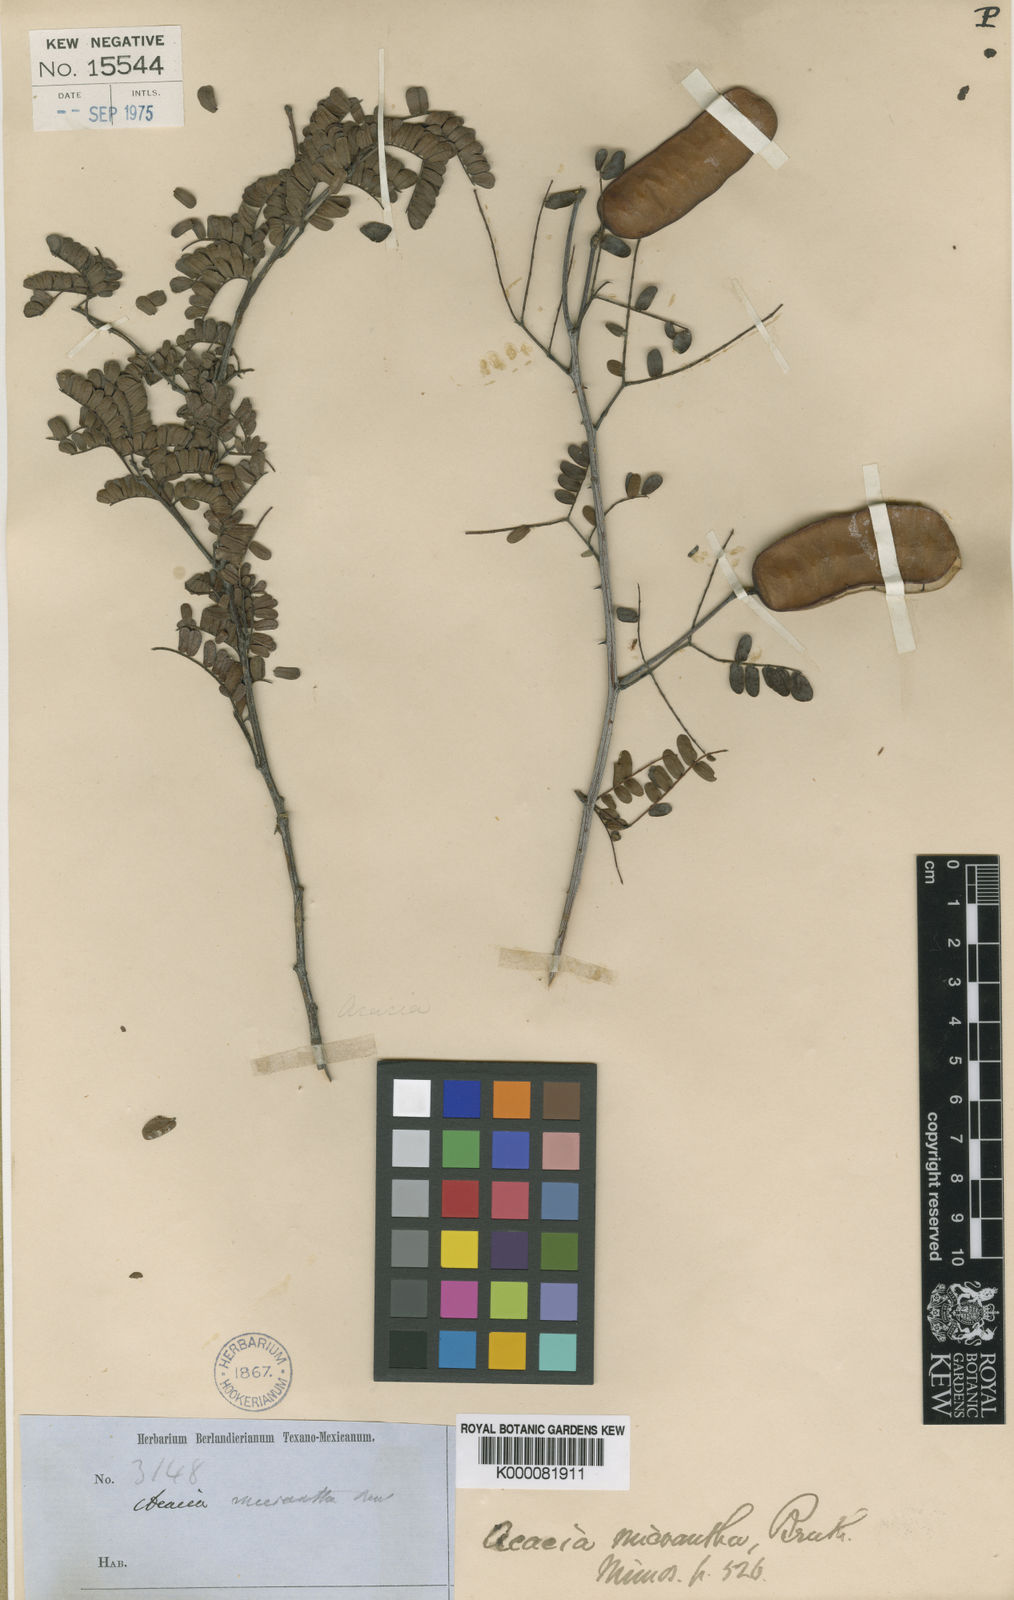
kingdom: Plantae
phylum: Tracheophyta
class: Magnoliopsida
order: Fabales
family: Fabaceae
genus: Senegalia
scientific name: Senegalia micrantha
